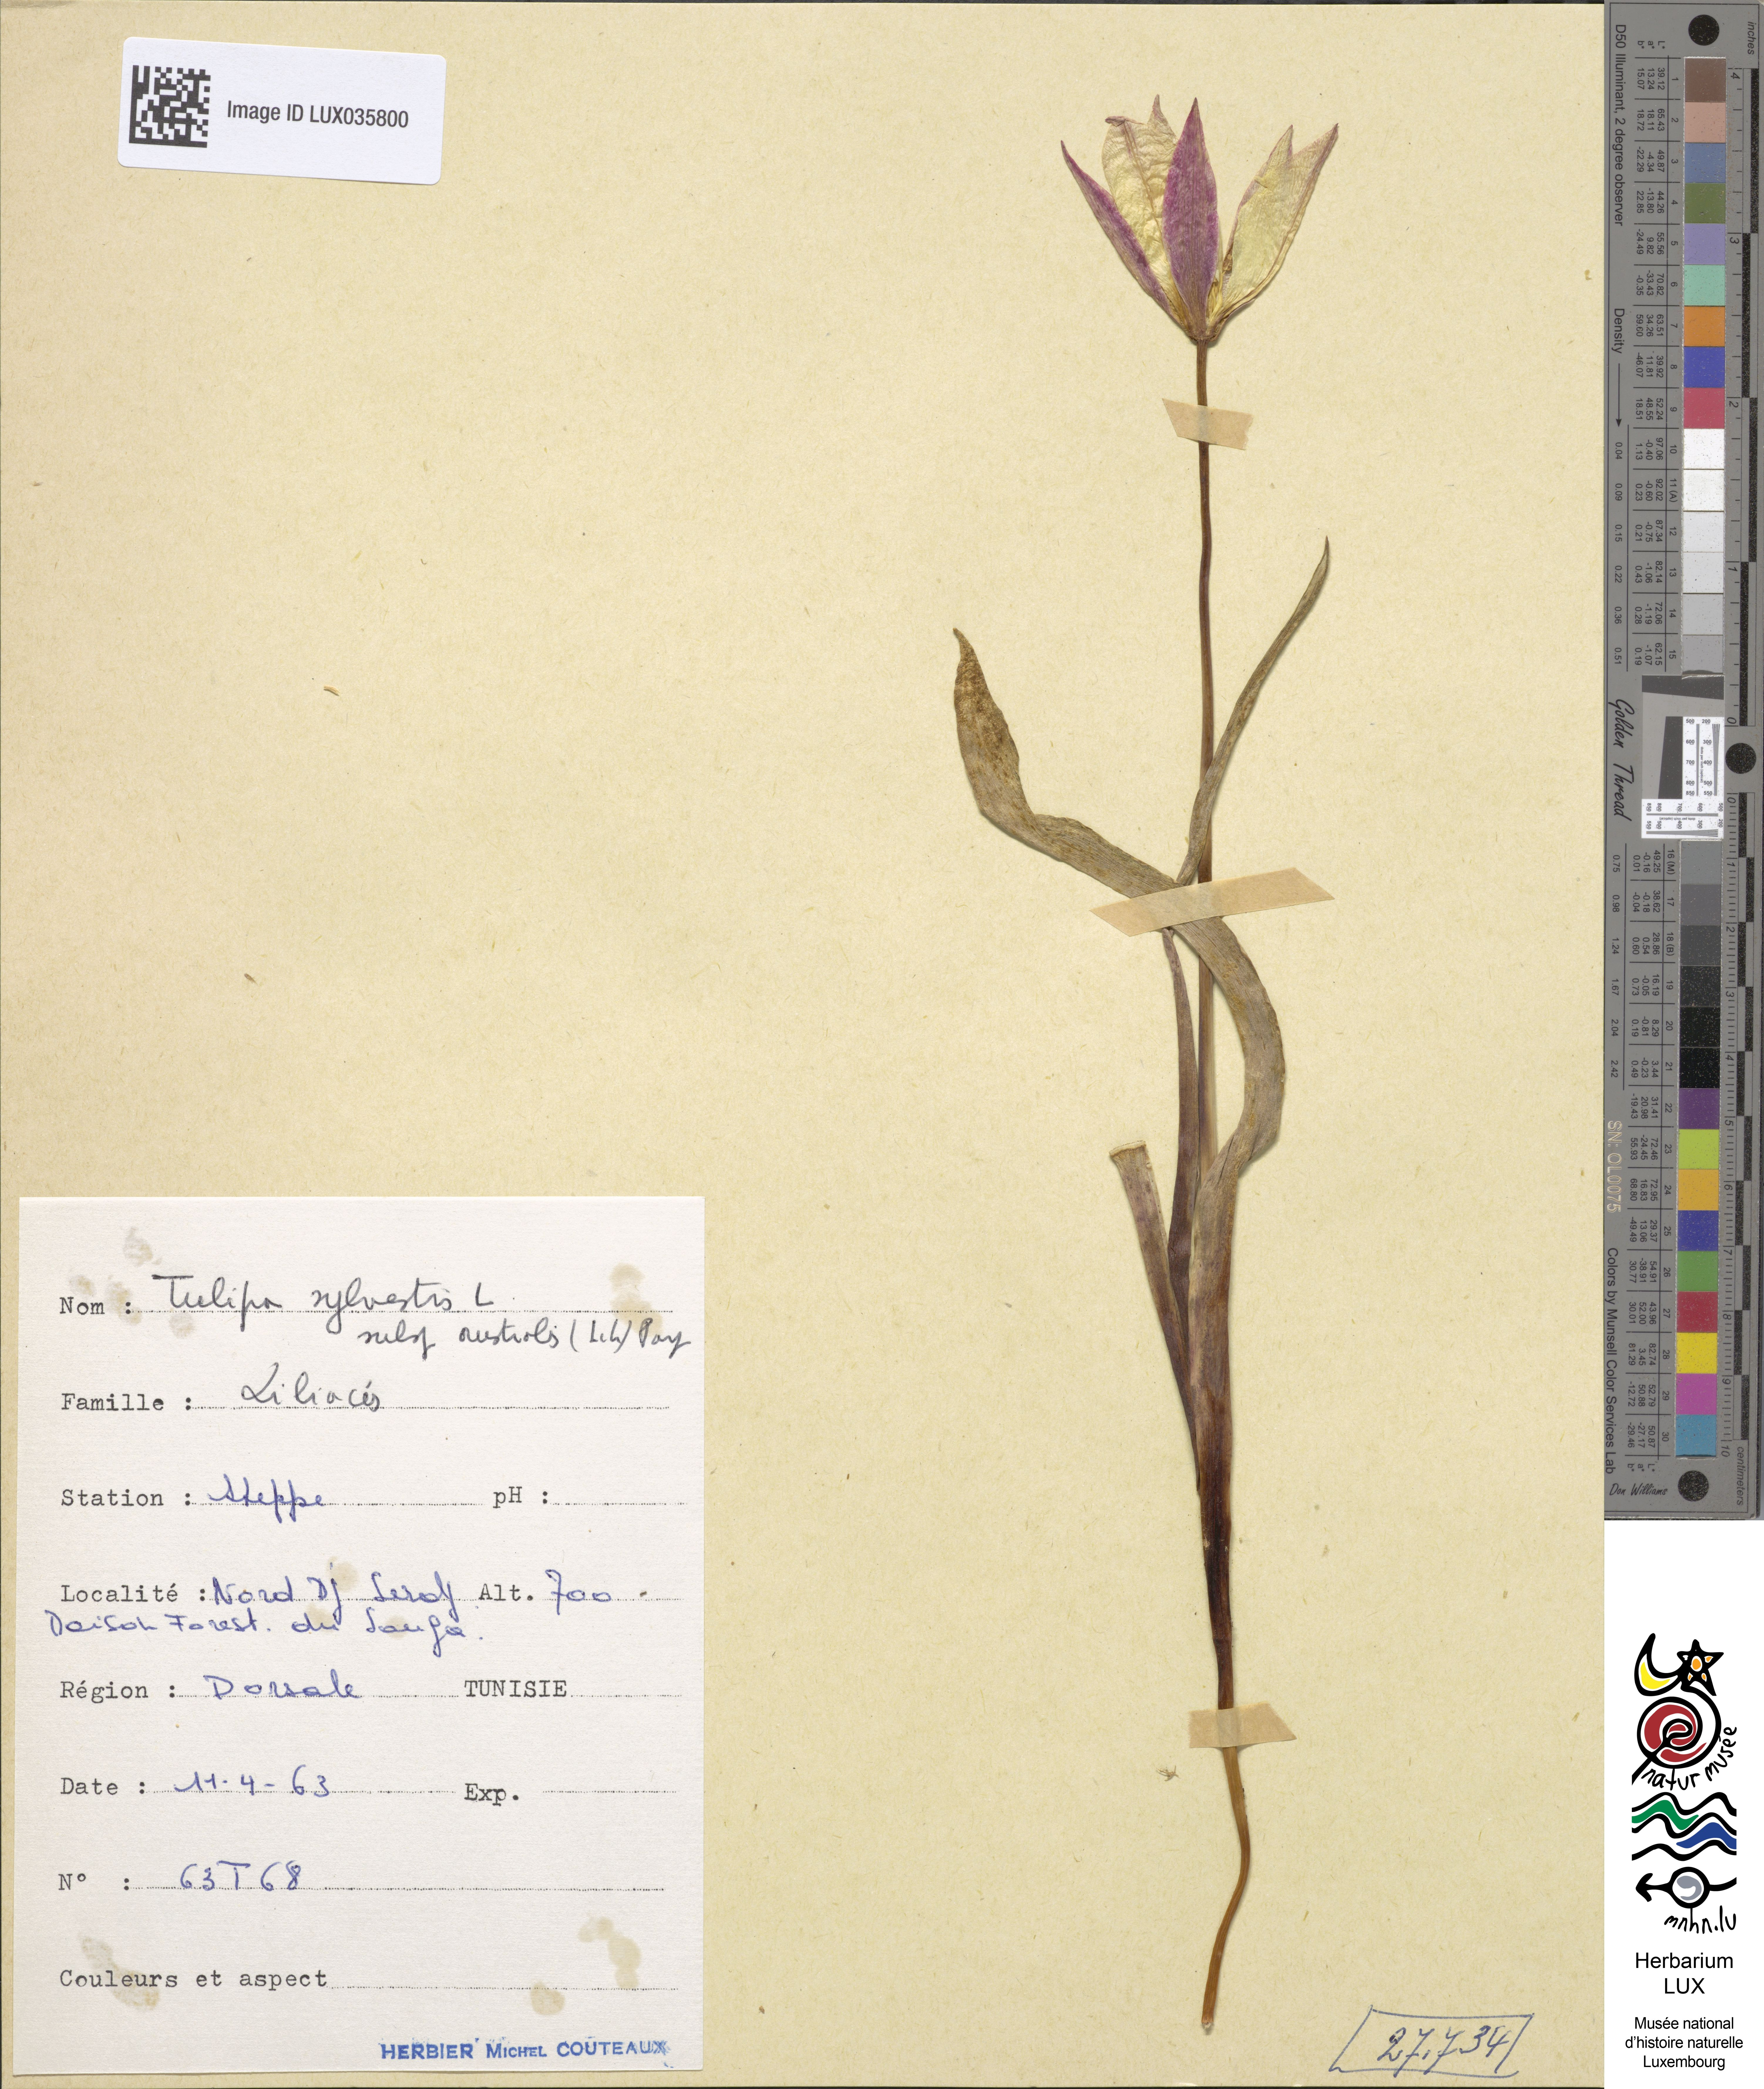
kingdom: Plantae
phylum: Tracheophyta
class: Liliopsida
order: Liliales
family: Liliaceae
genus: Tulipa
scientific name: Tulipa sylvestris
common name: Wild tulip
